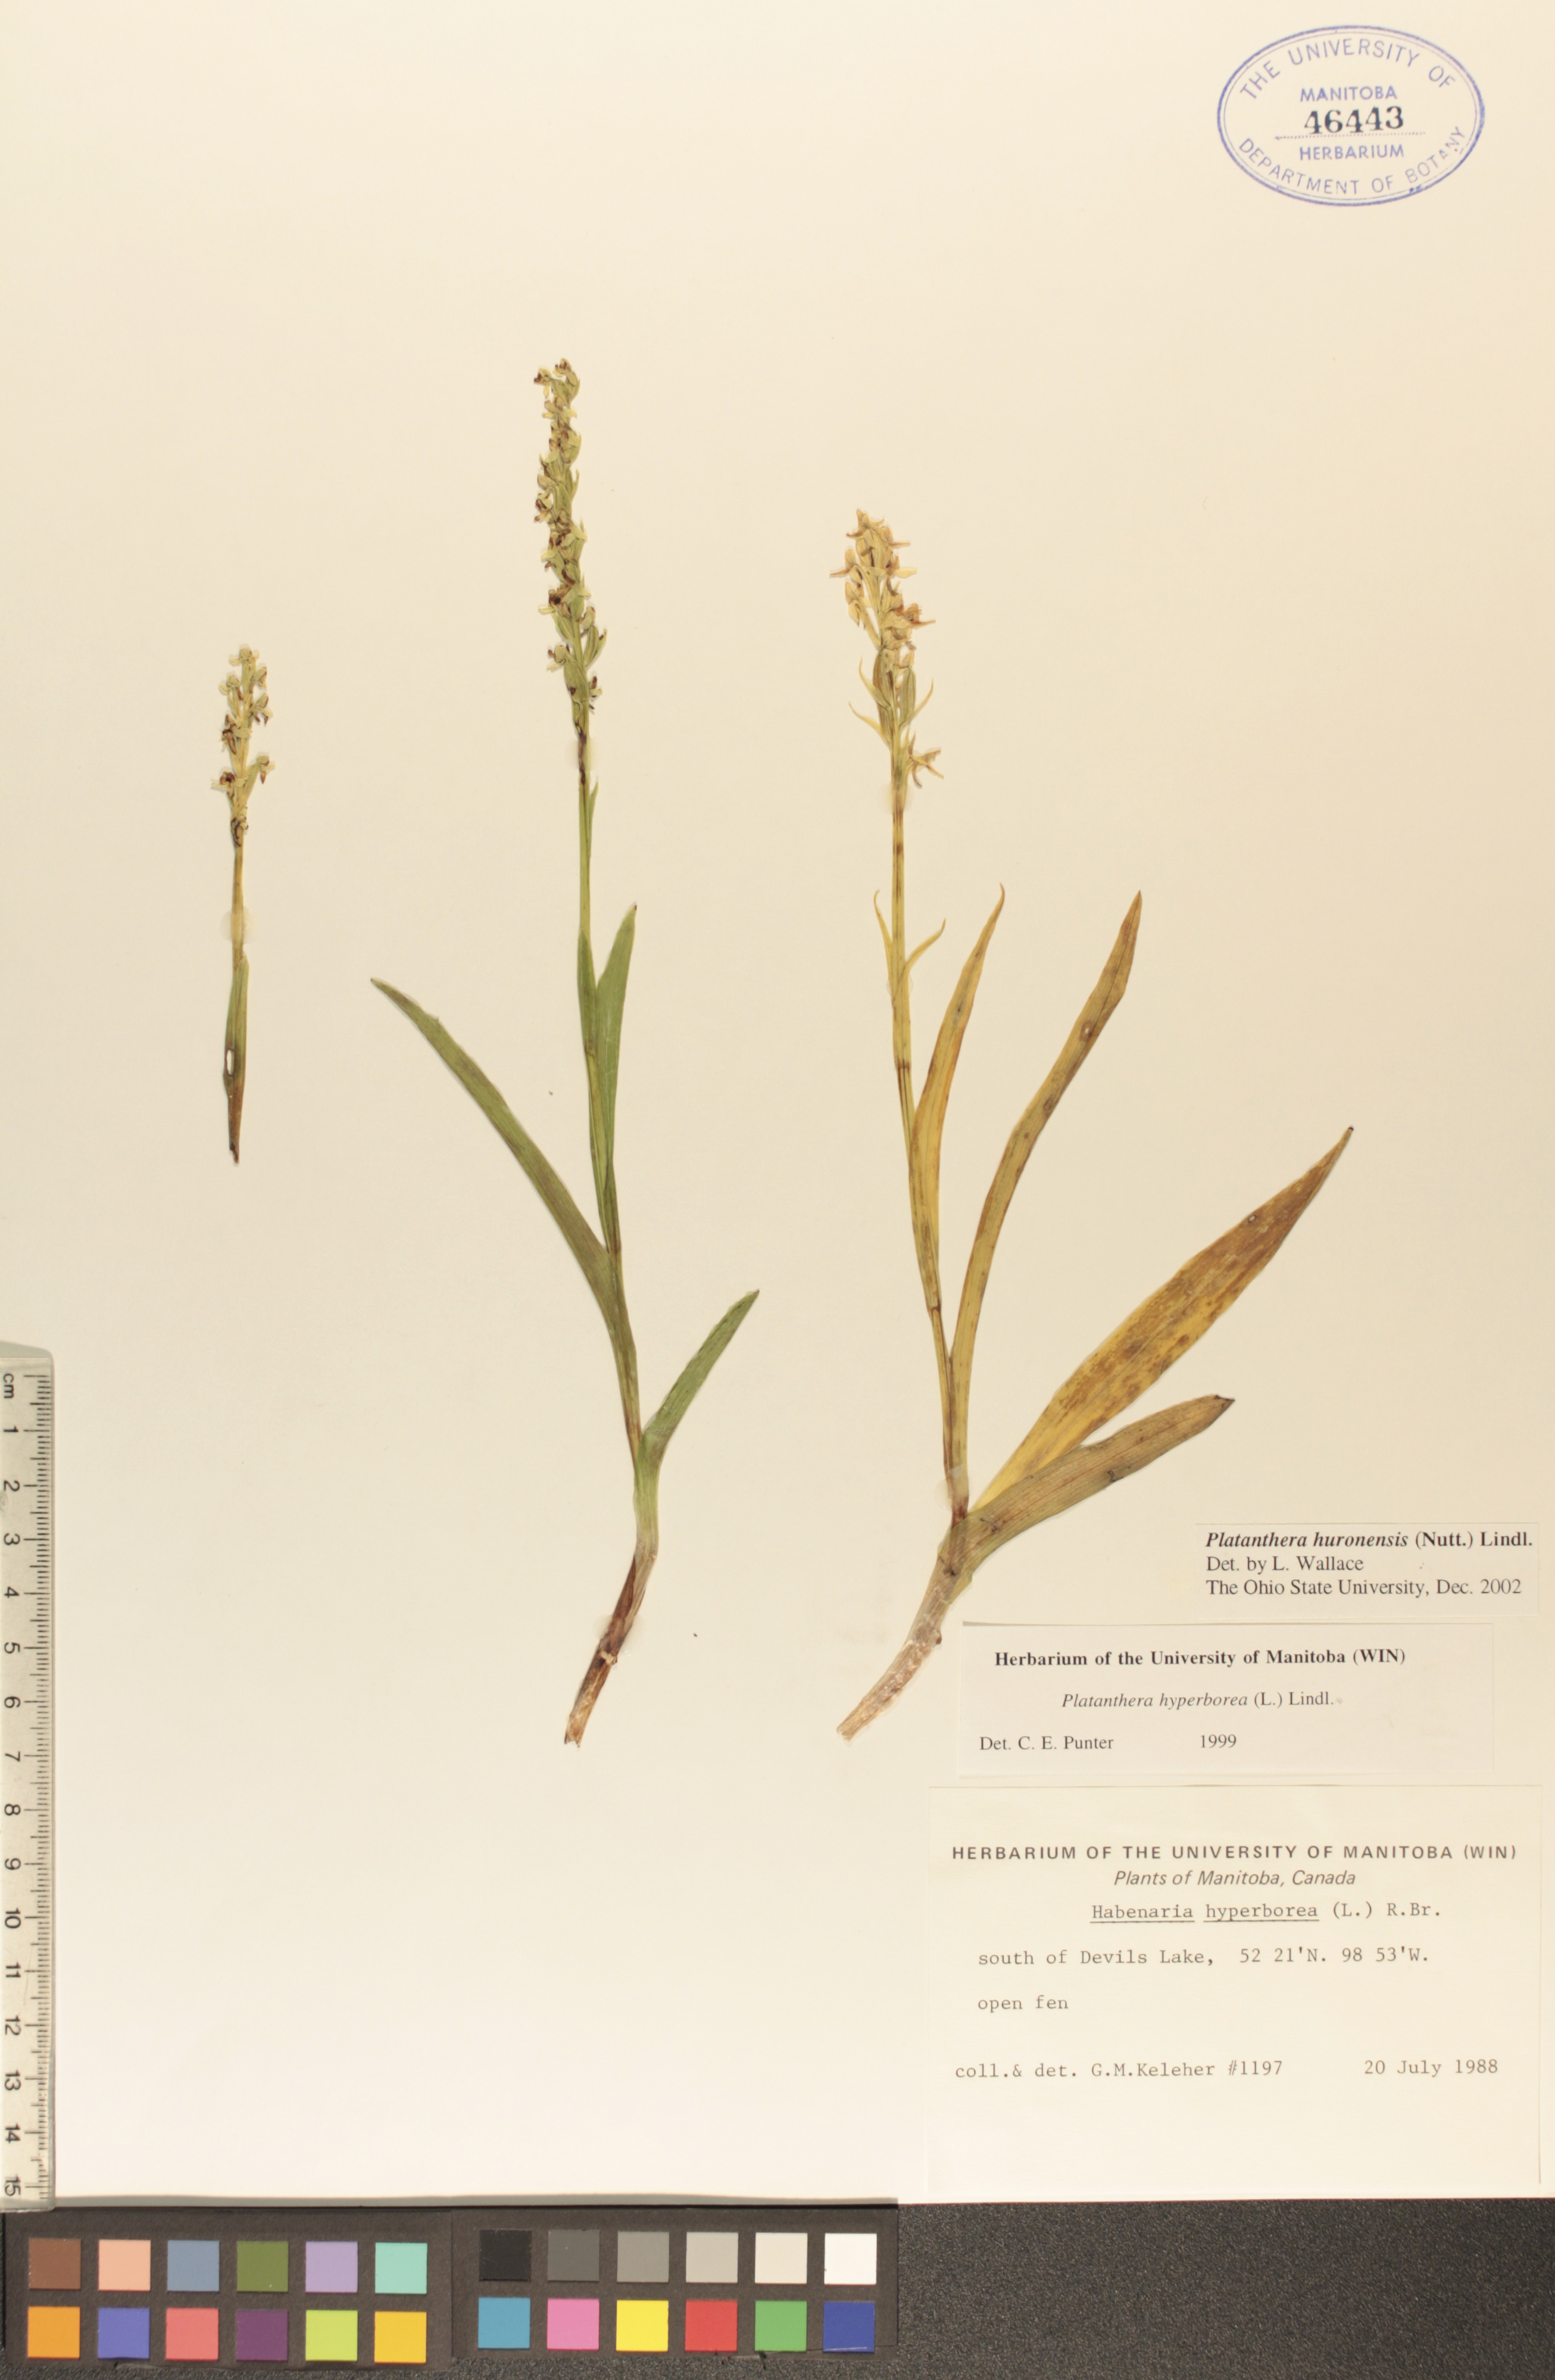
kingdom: Plantae
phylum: Tracheophyta
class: Liliopsida
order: Asparagales
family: Orchidaceae
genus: Platanthera
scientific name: Platanthera huronensis
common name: Fragrant green orchid
